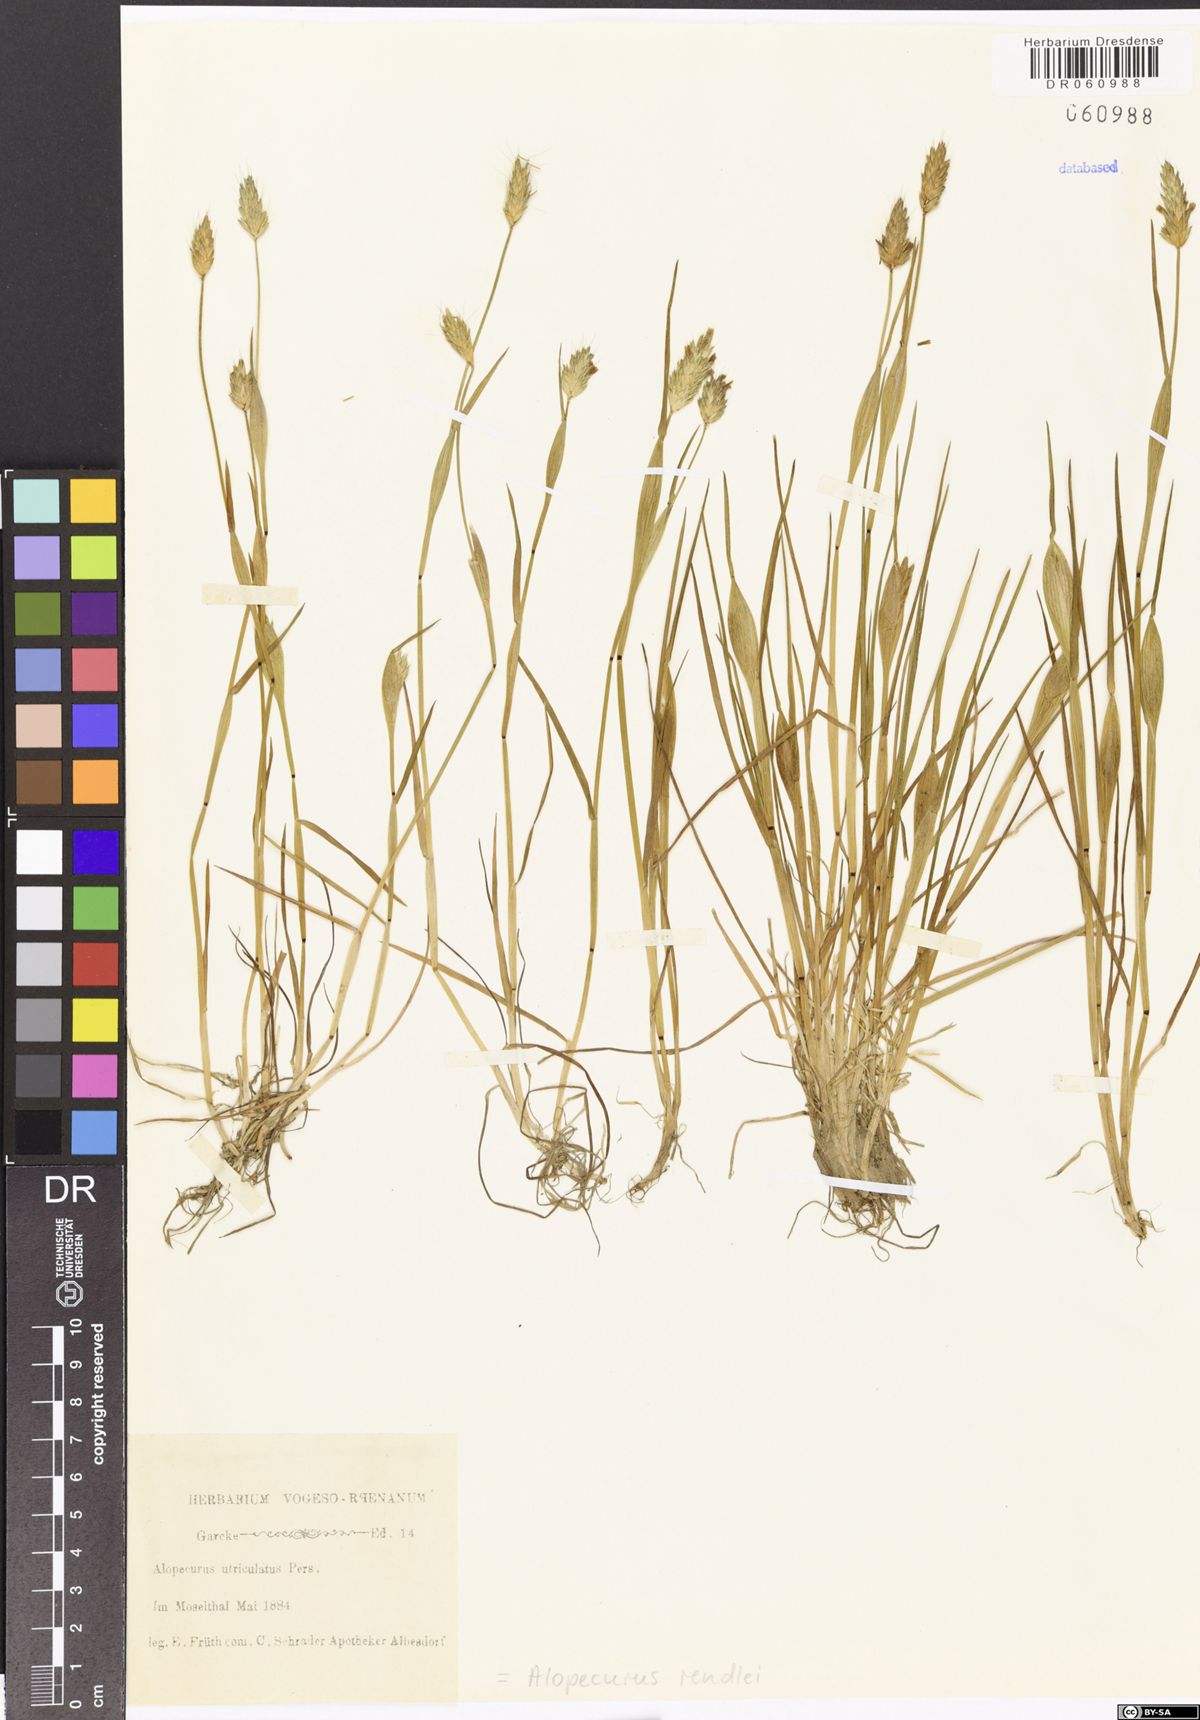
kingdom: Plantae
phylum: Tracheophyta
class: Liliopsida
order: Poales
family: Poaceae
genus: Alopecurus
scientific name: Alopecurus rendlei
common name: Rendle's meadow foxtail
